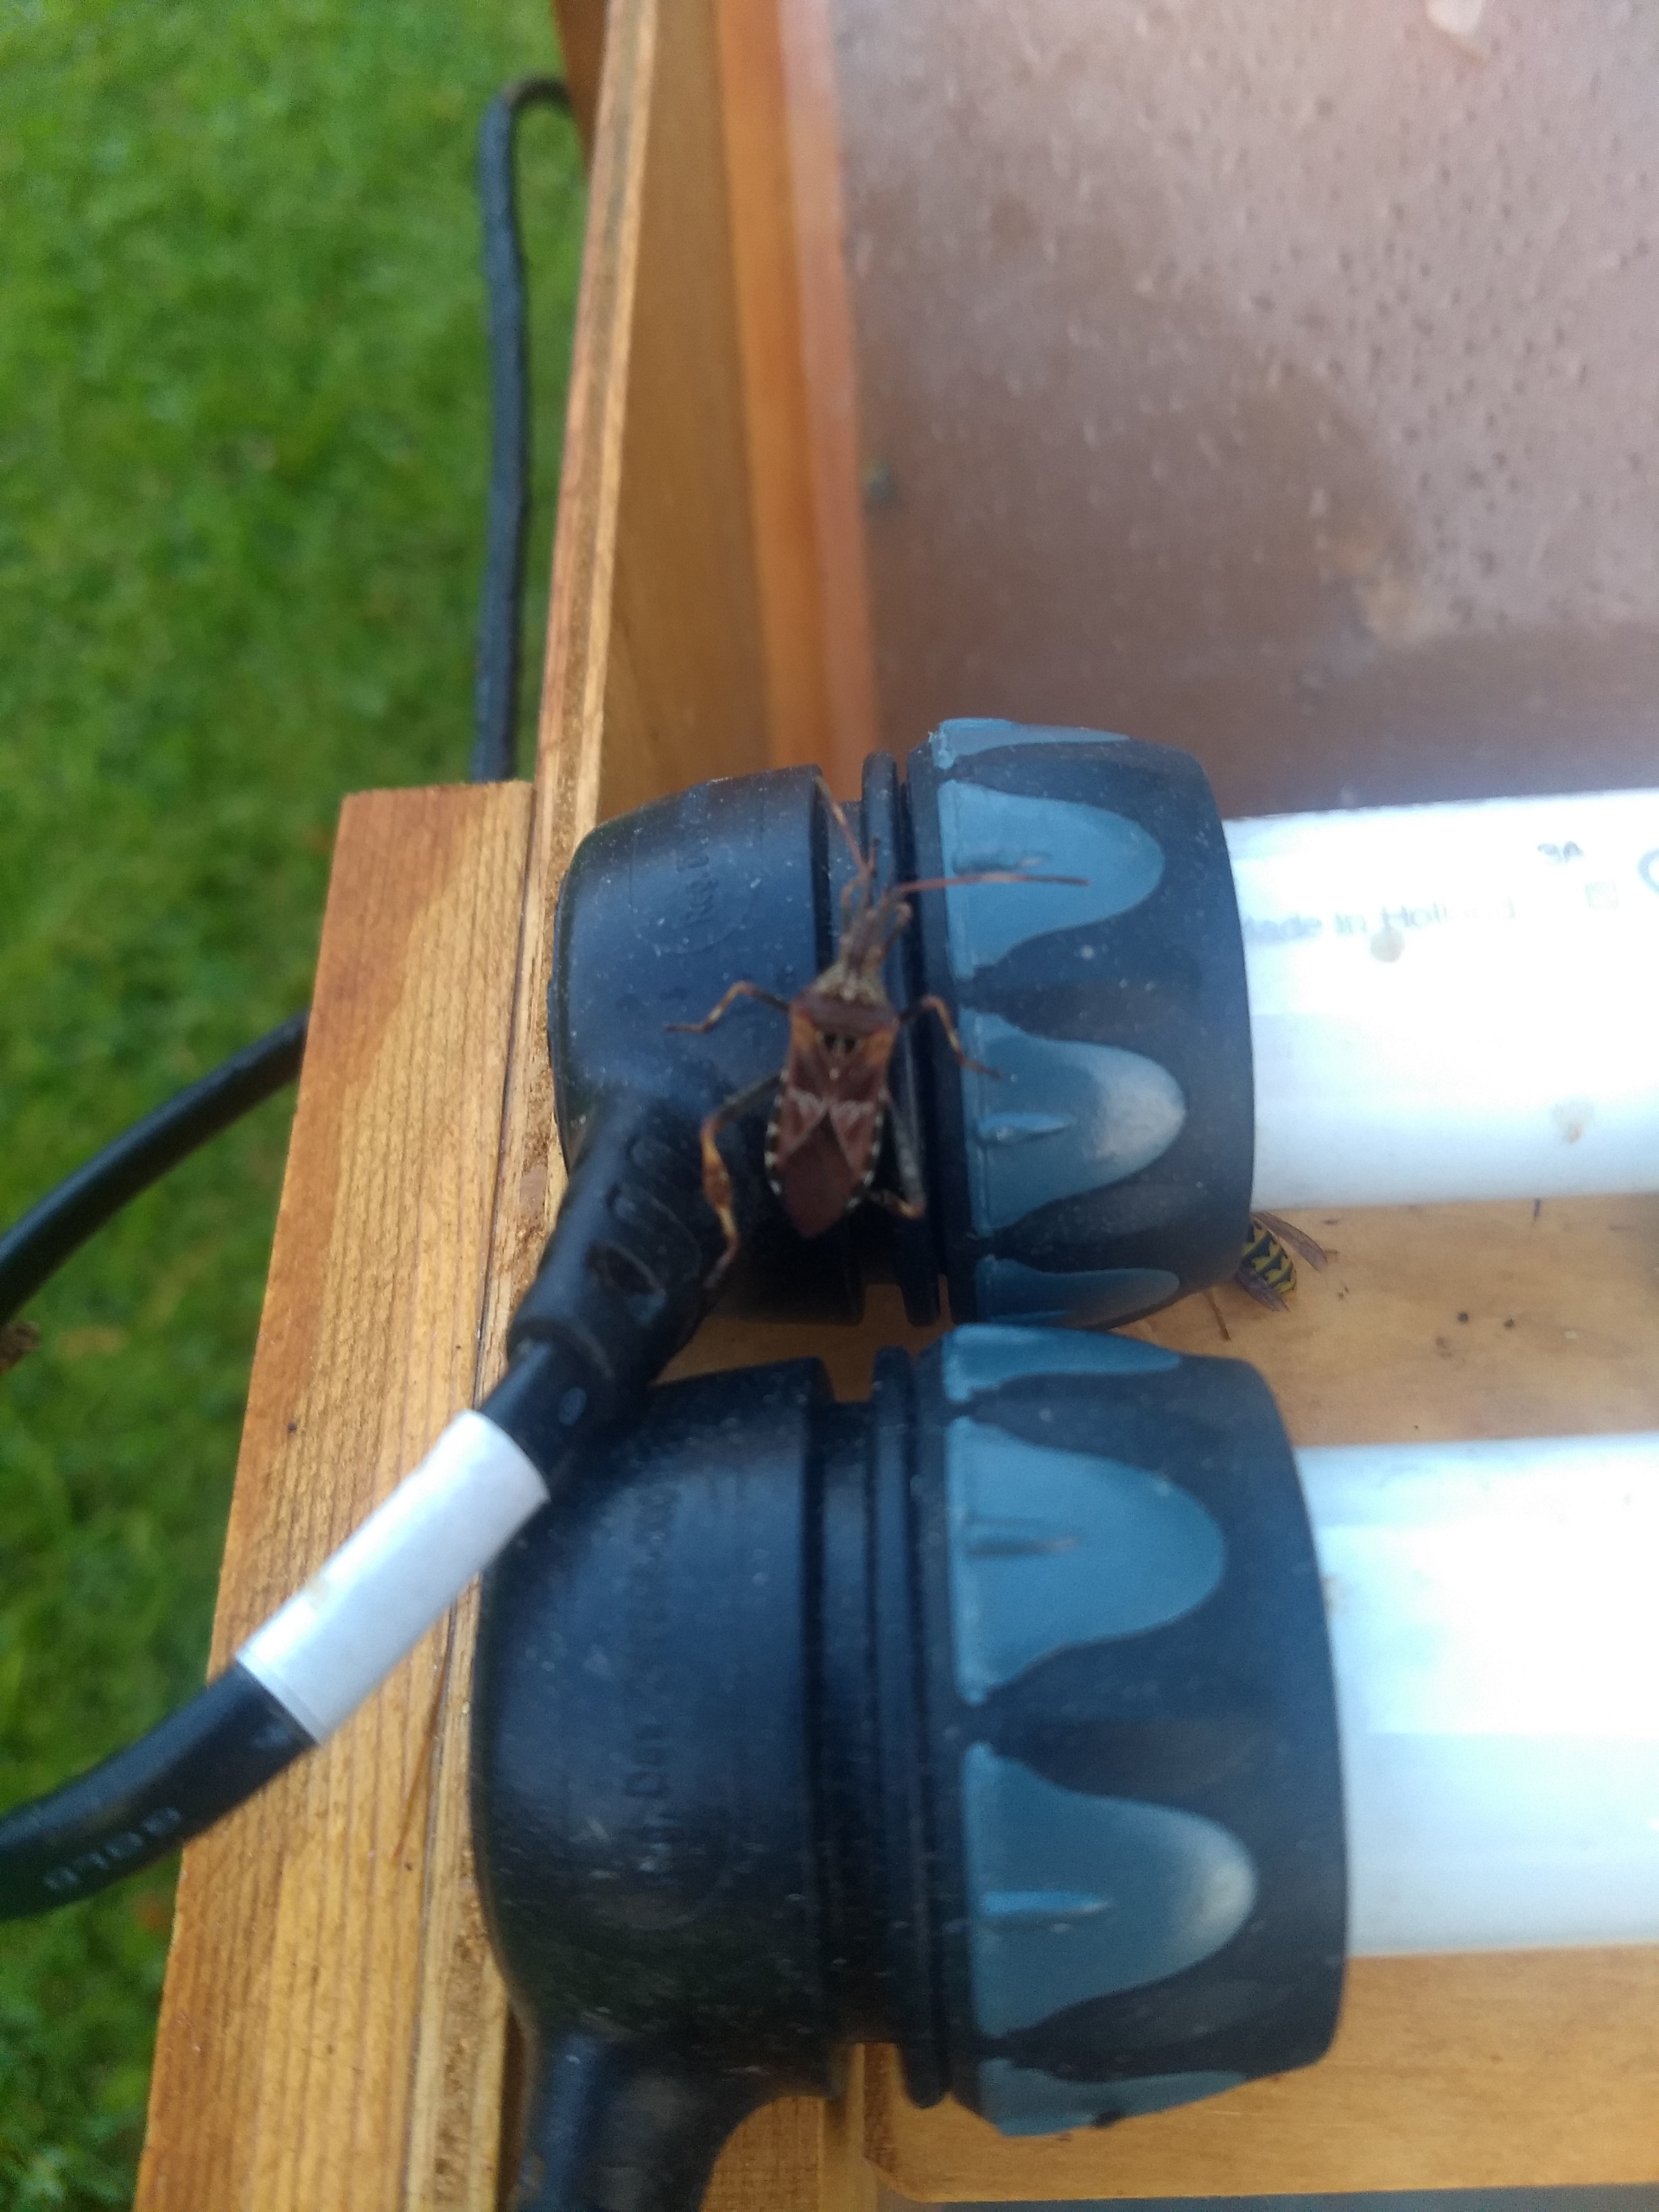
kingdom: Animalia
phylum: Arthropoda
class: Insecta
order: Hemiptera
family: Coreidae
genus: Leptoglossus
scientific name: Leptoglossus occidentalis
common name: Amerikansk fyrretæge
